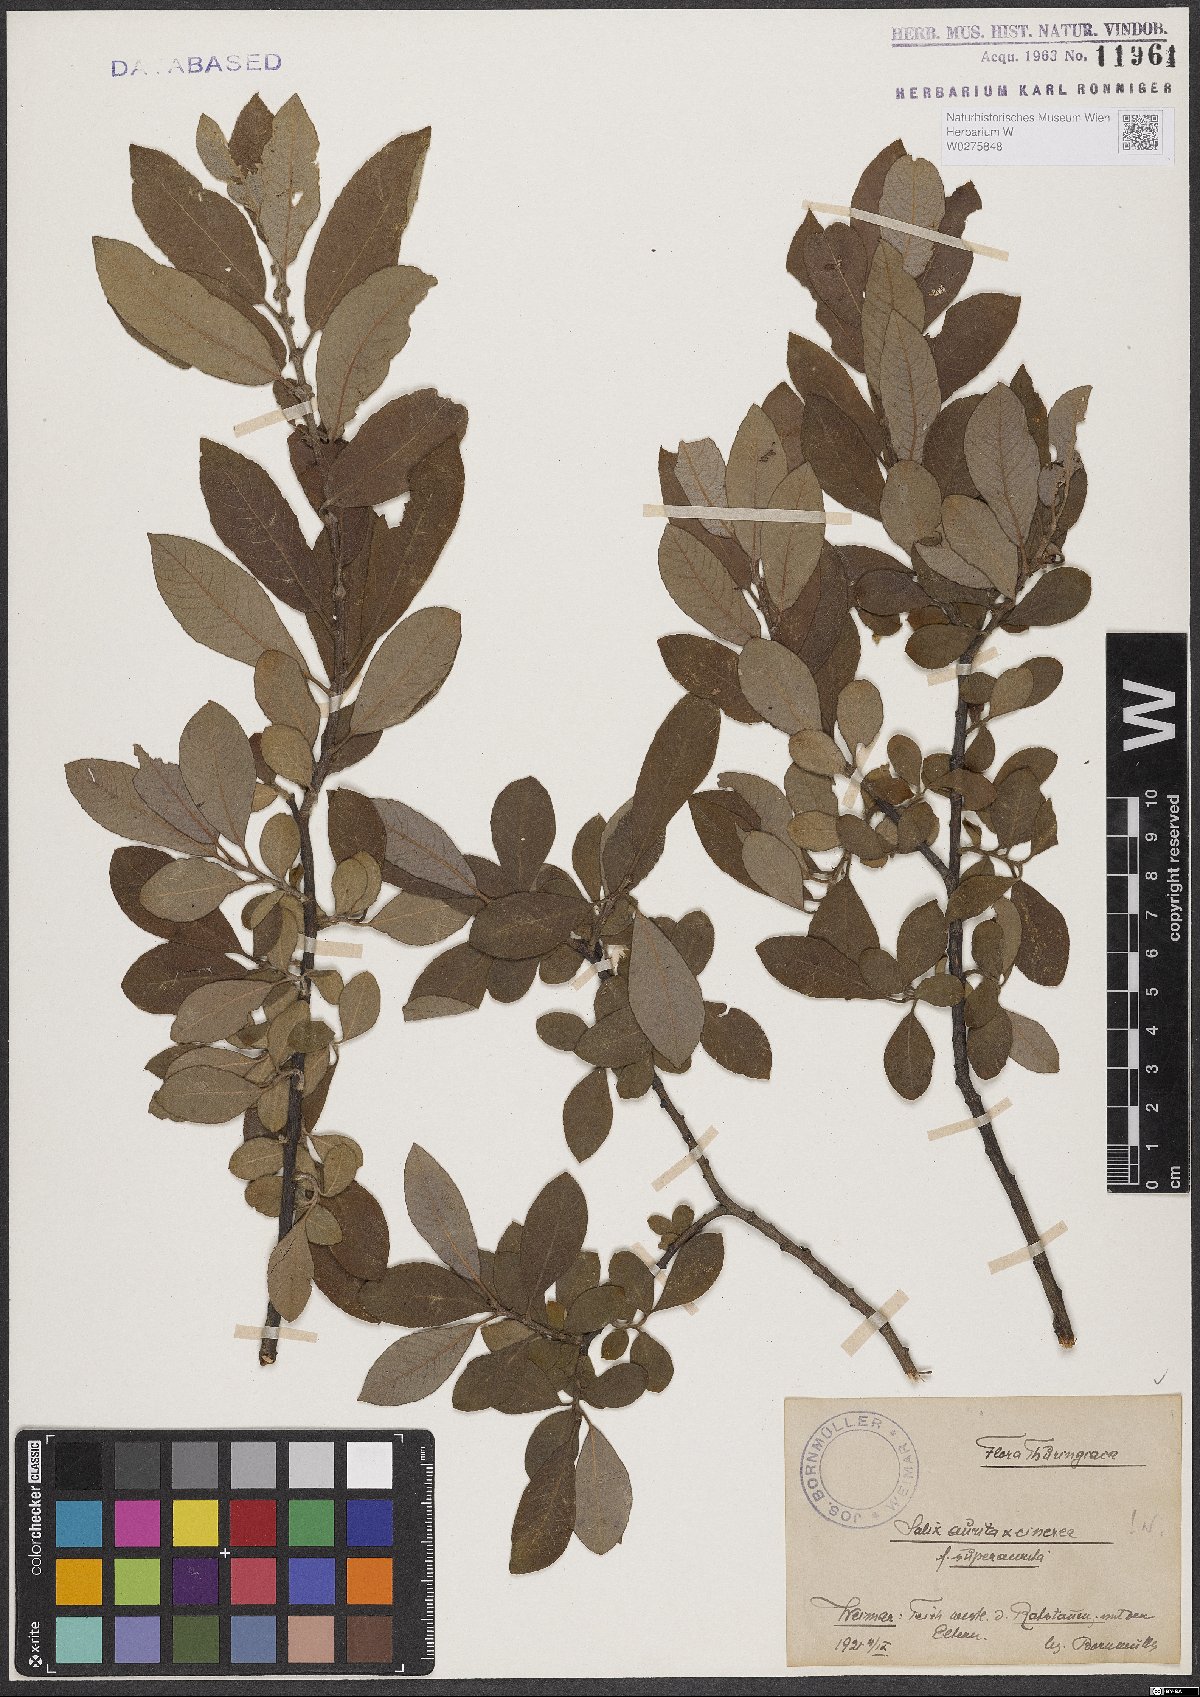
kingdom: Plantae
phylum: Tracheophyta
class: Magnoliopsida
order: Malpighiales
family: Salicaceae
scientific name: Salicaceae
